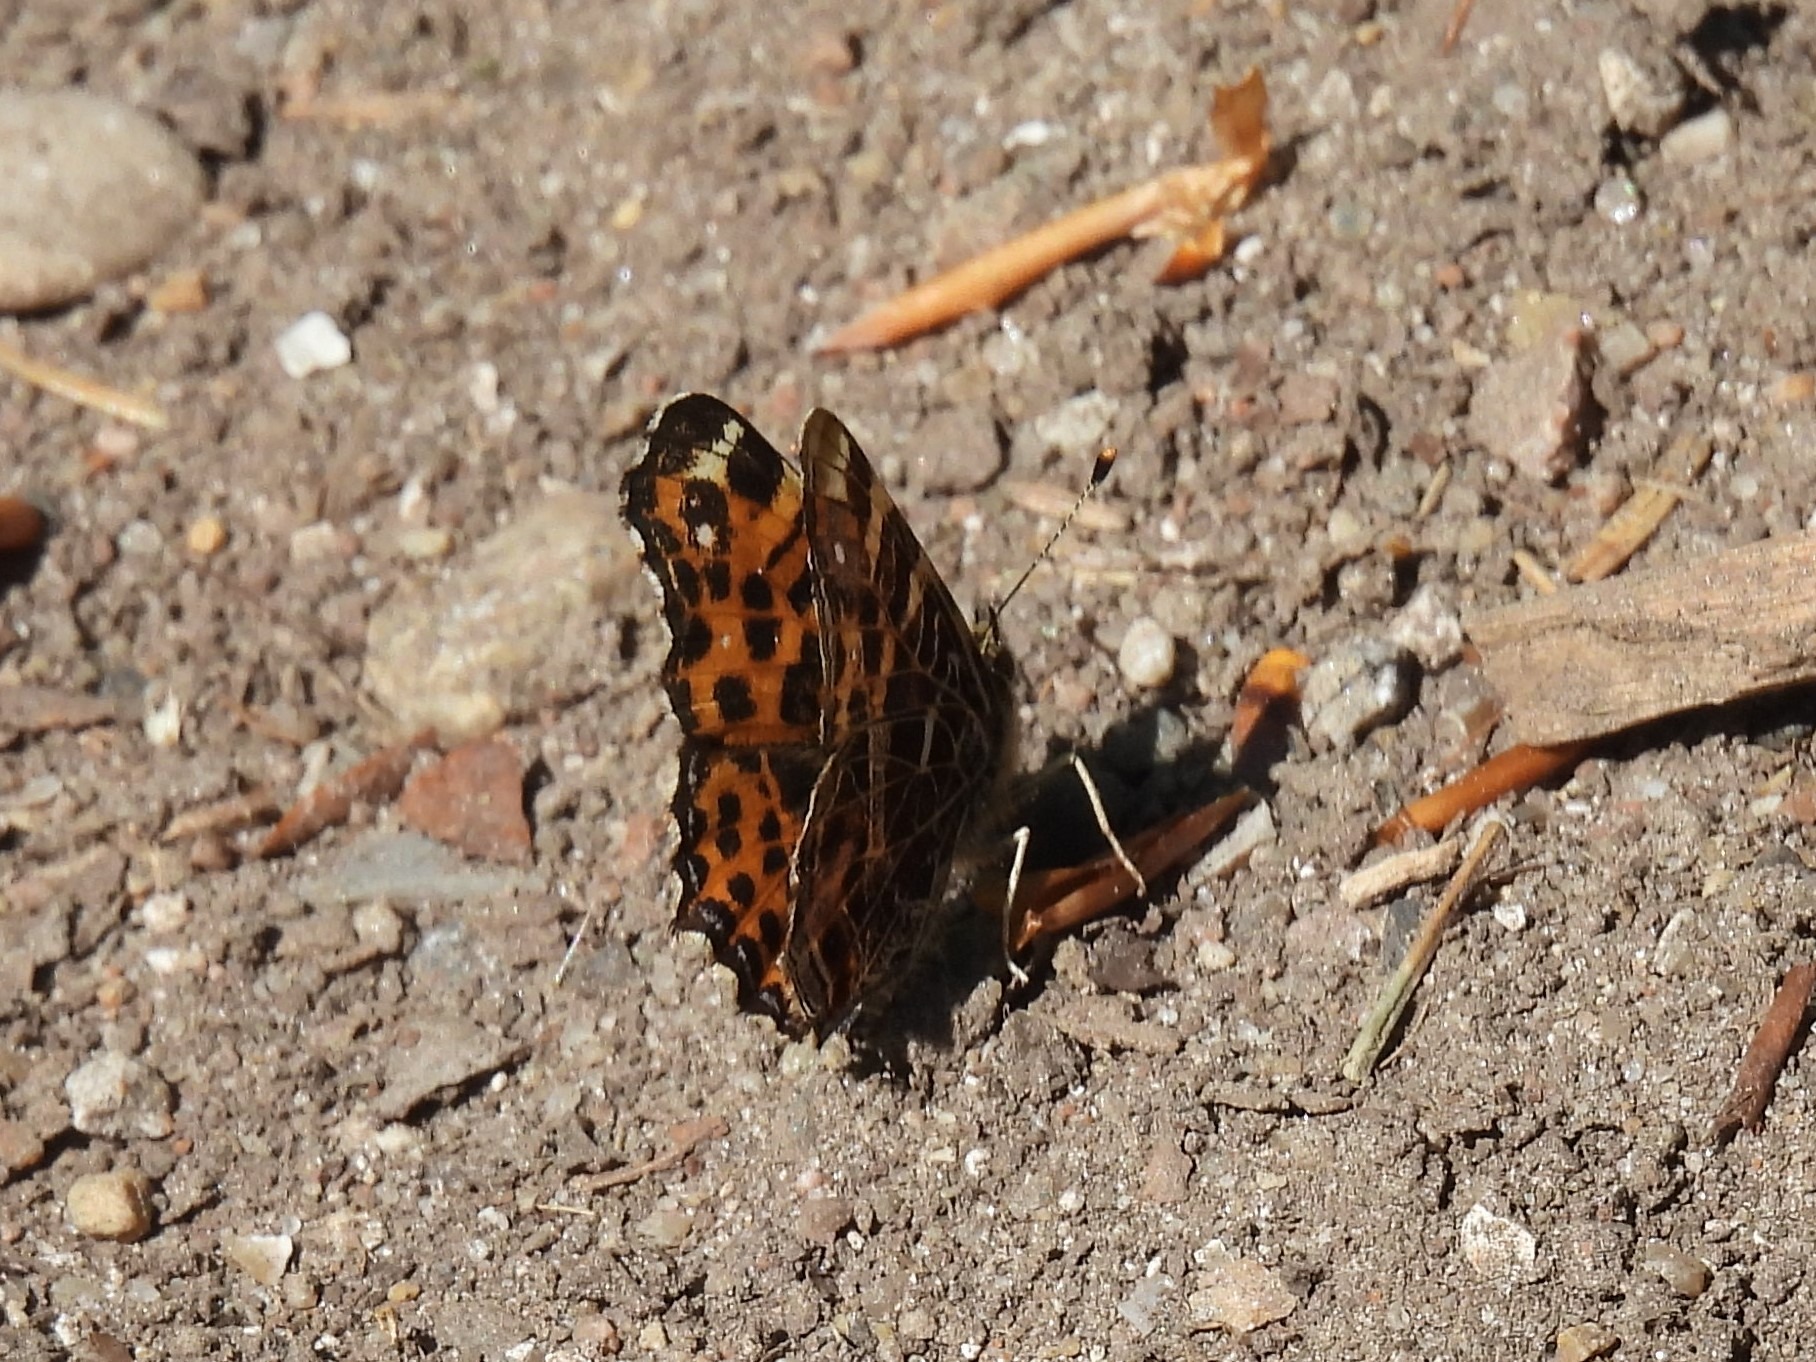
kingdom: Animalia
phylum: Arthropoda
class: Insecta
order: Lepidoptera
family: Nymphalidae
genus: Araschnia
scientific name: Araschnia levana
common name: Nældesommerfugl
